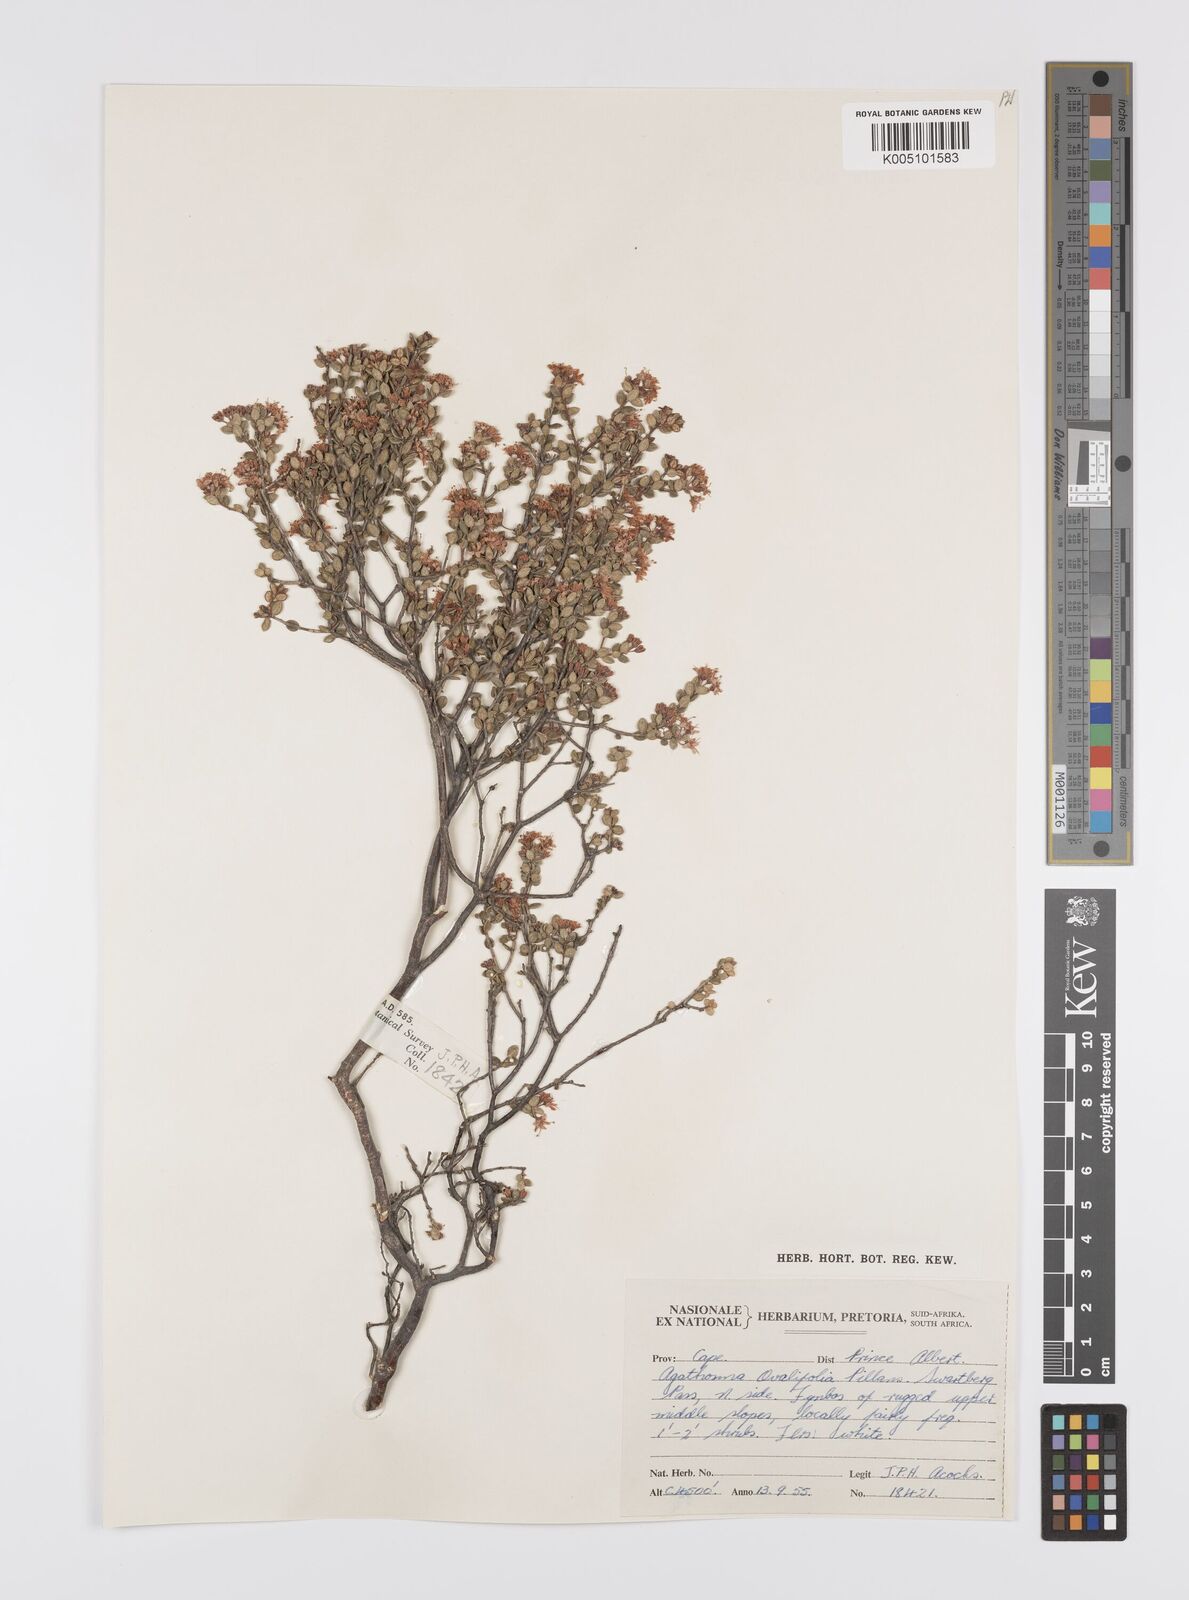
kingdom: Plantae
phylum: Tracheophyta
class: Magnoliopsida
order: Sapindales
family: Rutaceae
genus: Agathosma
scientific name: Agathosma ovalifolia
